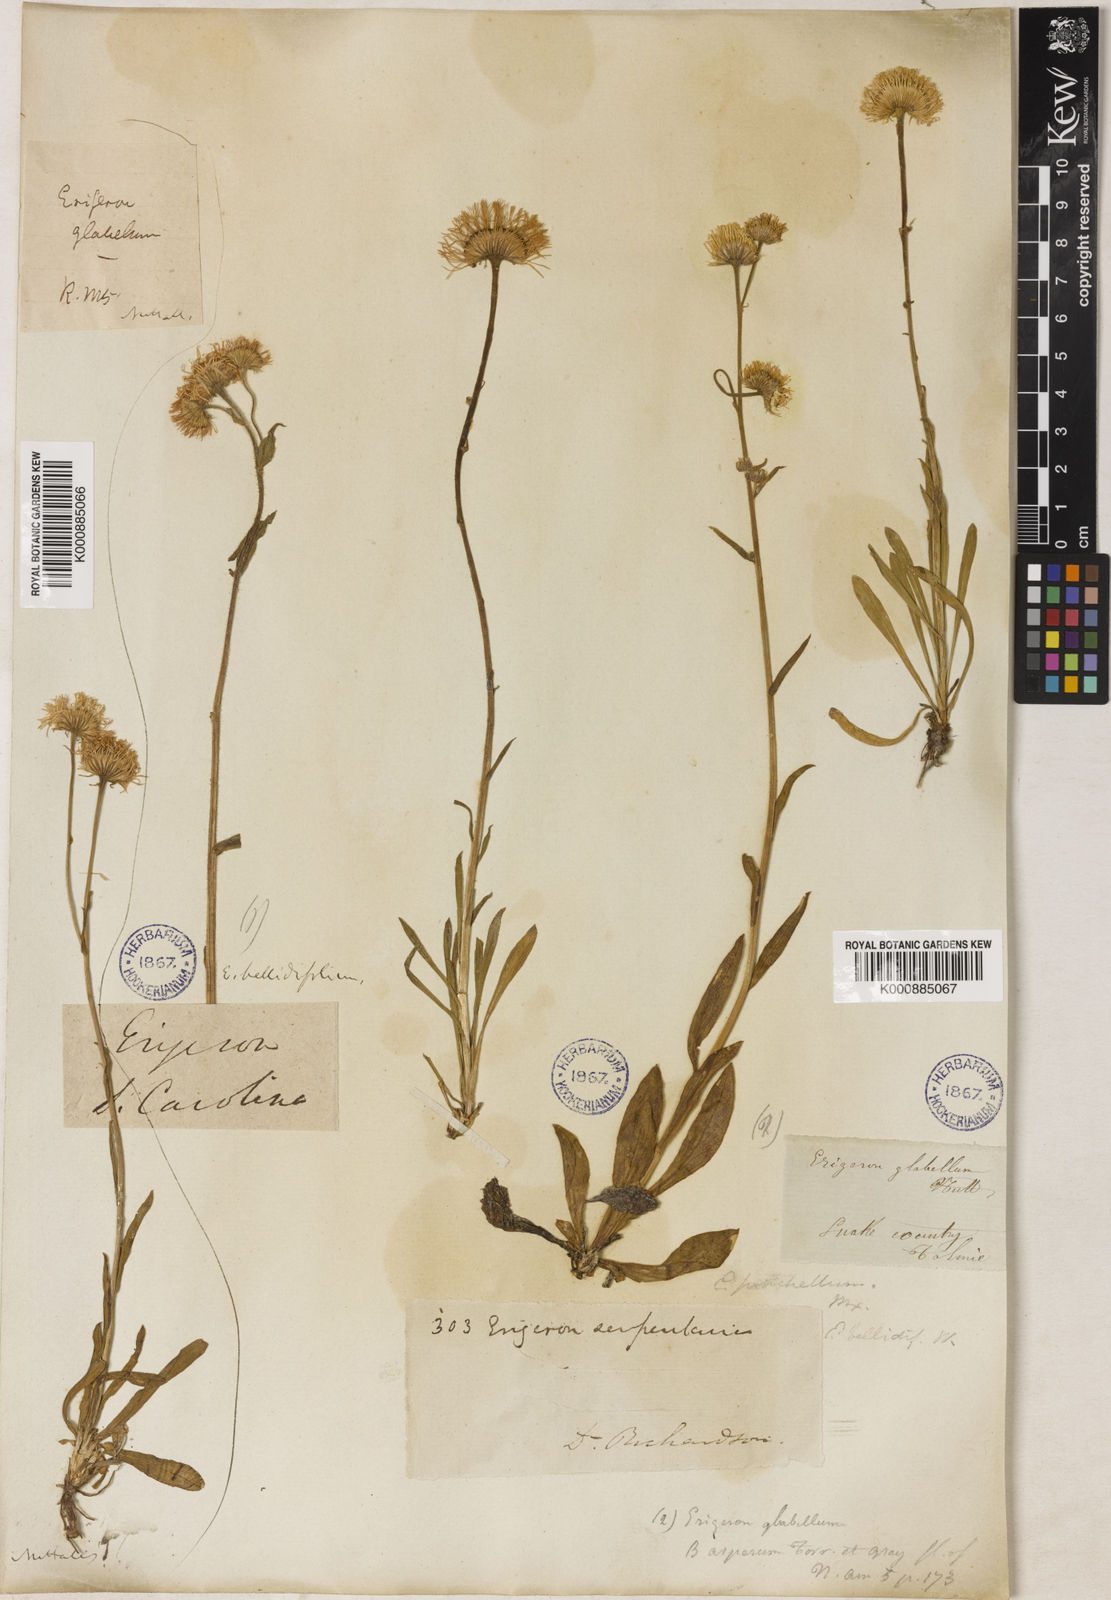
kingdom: Plantae
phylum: Tracheophyta
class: Magnoliopsida
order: Asterales
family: Asteraceae
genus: Erigeron
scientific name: Erigeron glabellus
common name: Smooth fleabane
